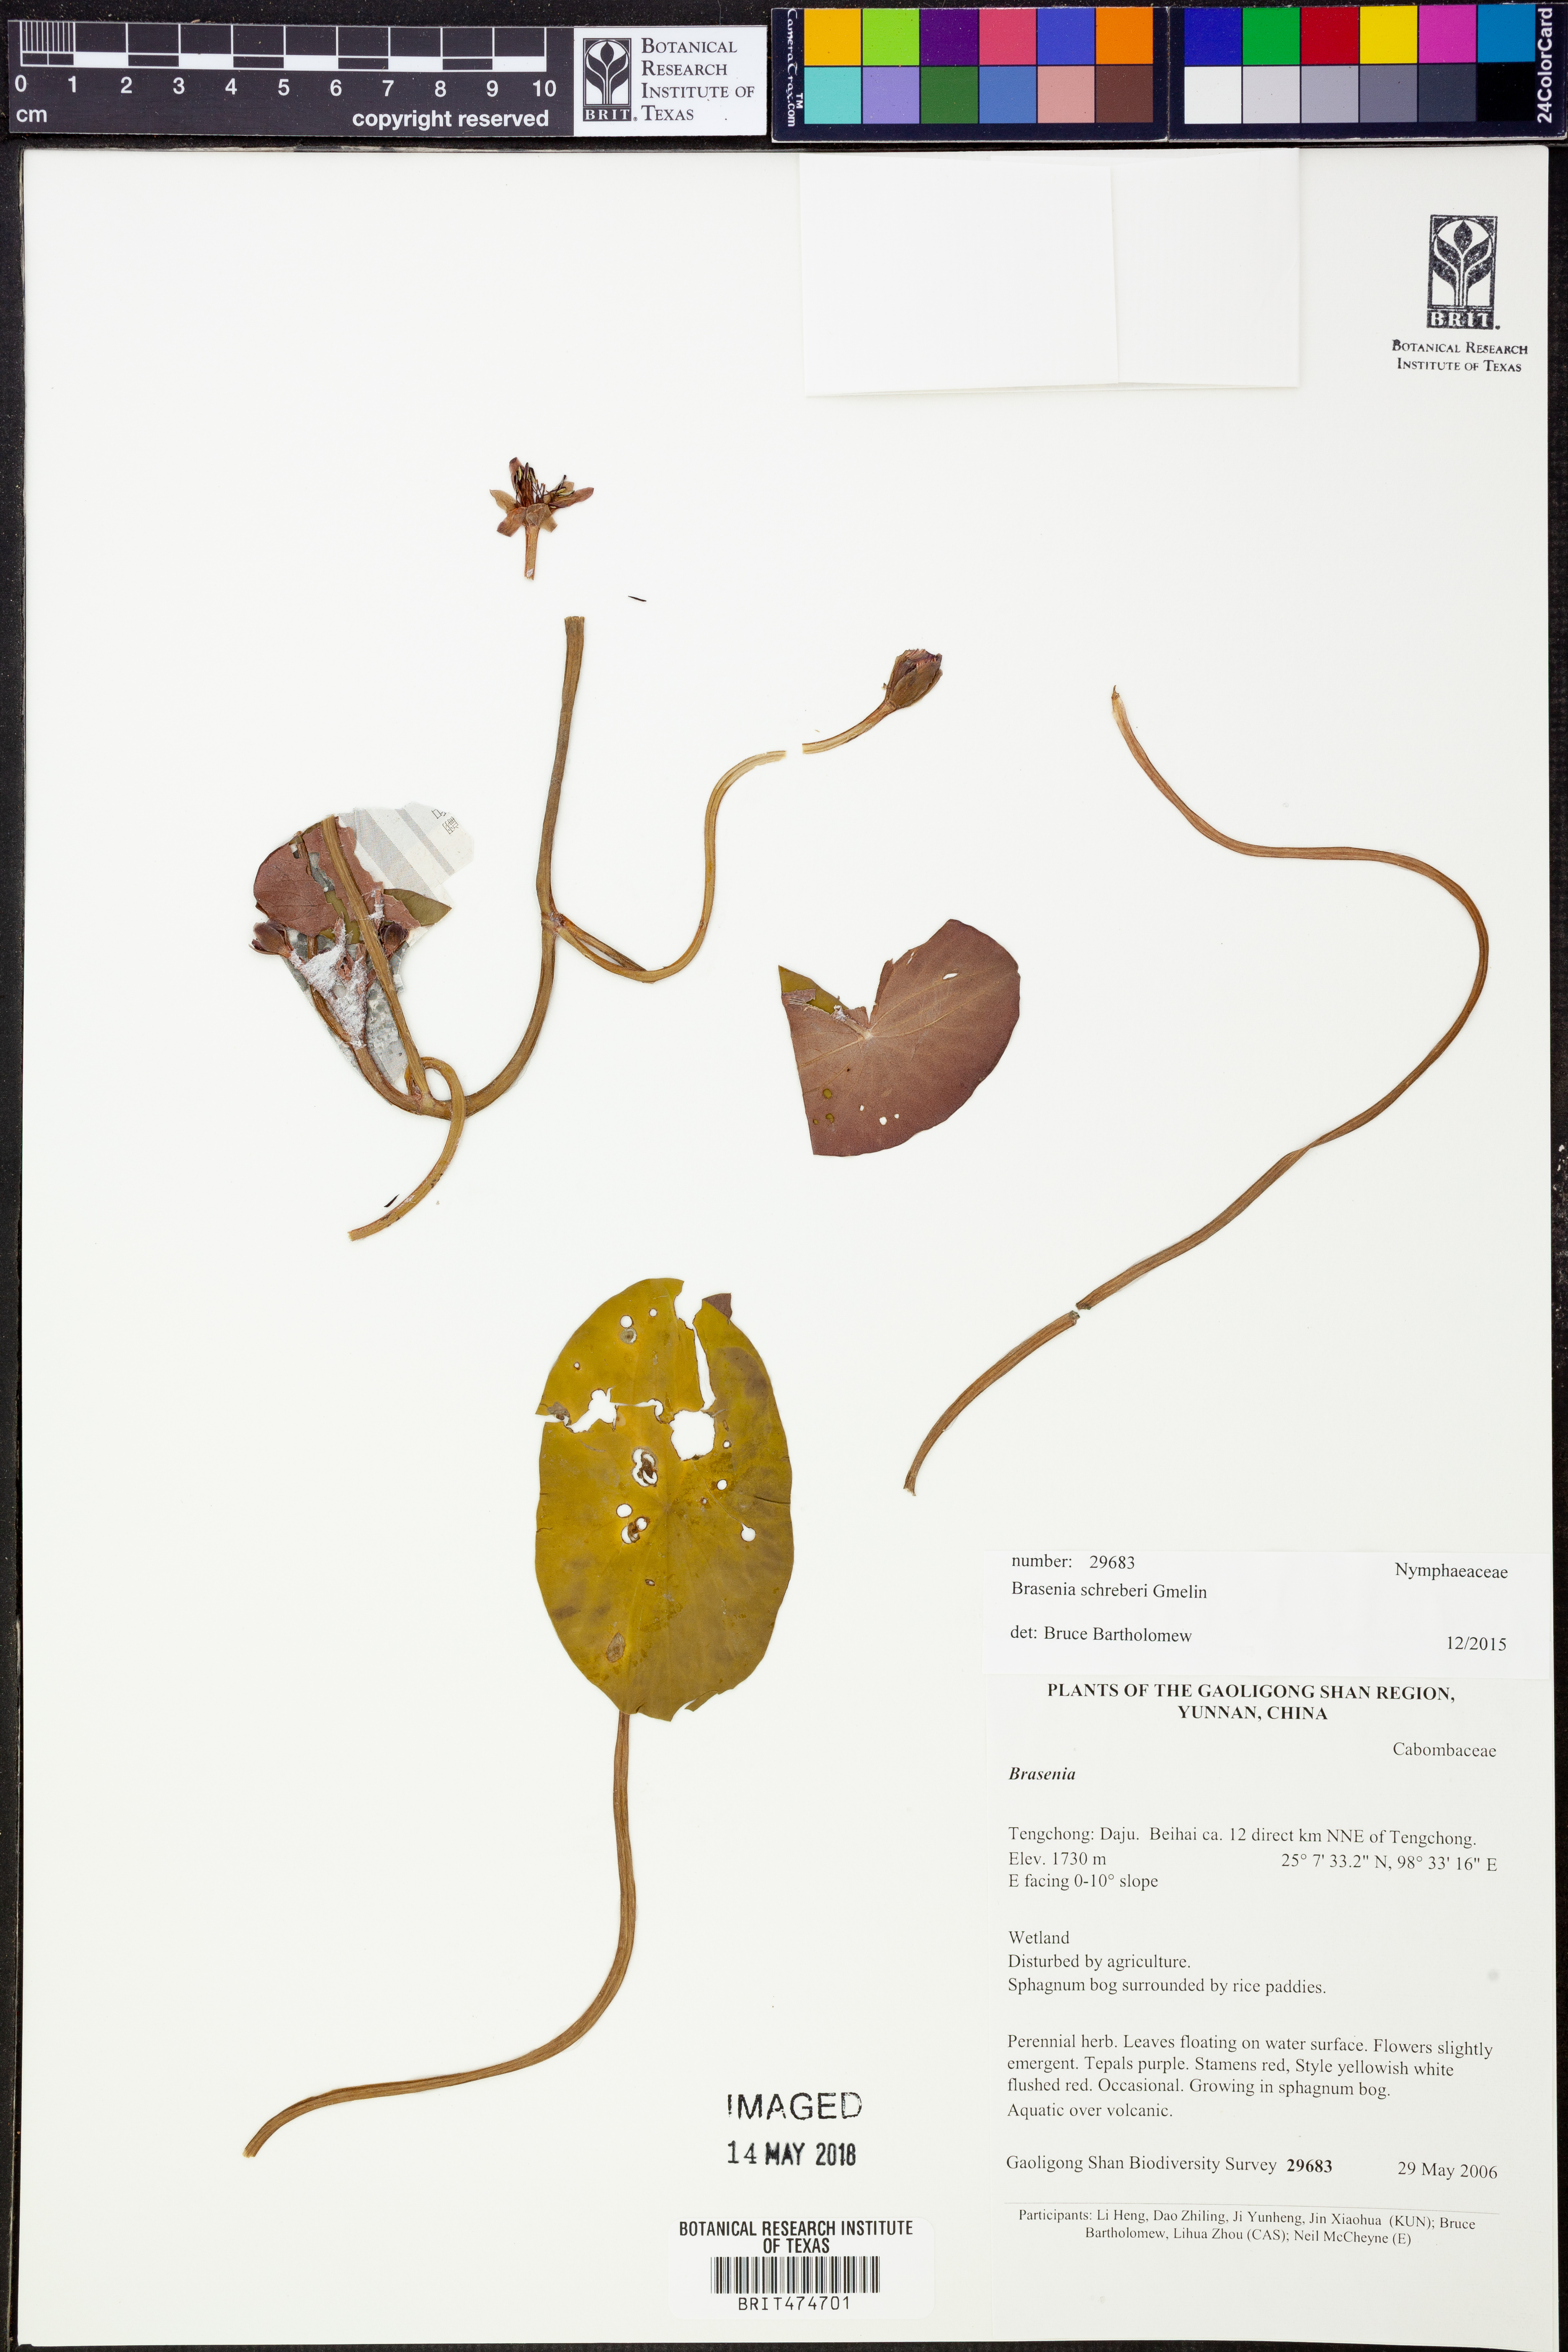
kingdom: Plantae
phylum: Tracheophyta
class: Magnoliopsida
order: Nymphaeales
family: Cabombaceae
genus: Brasenia
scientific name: Brasenia schreberi
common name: Water-shield
